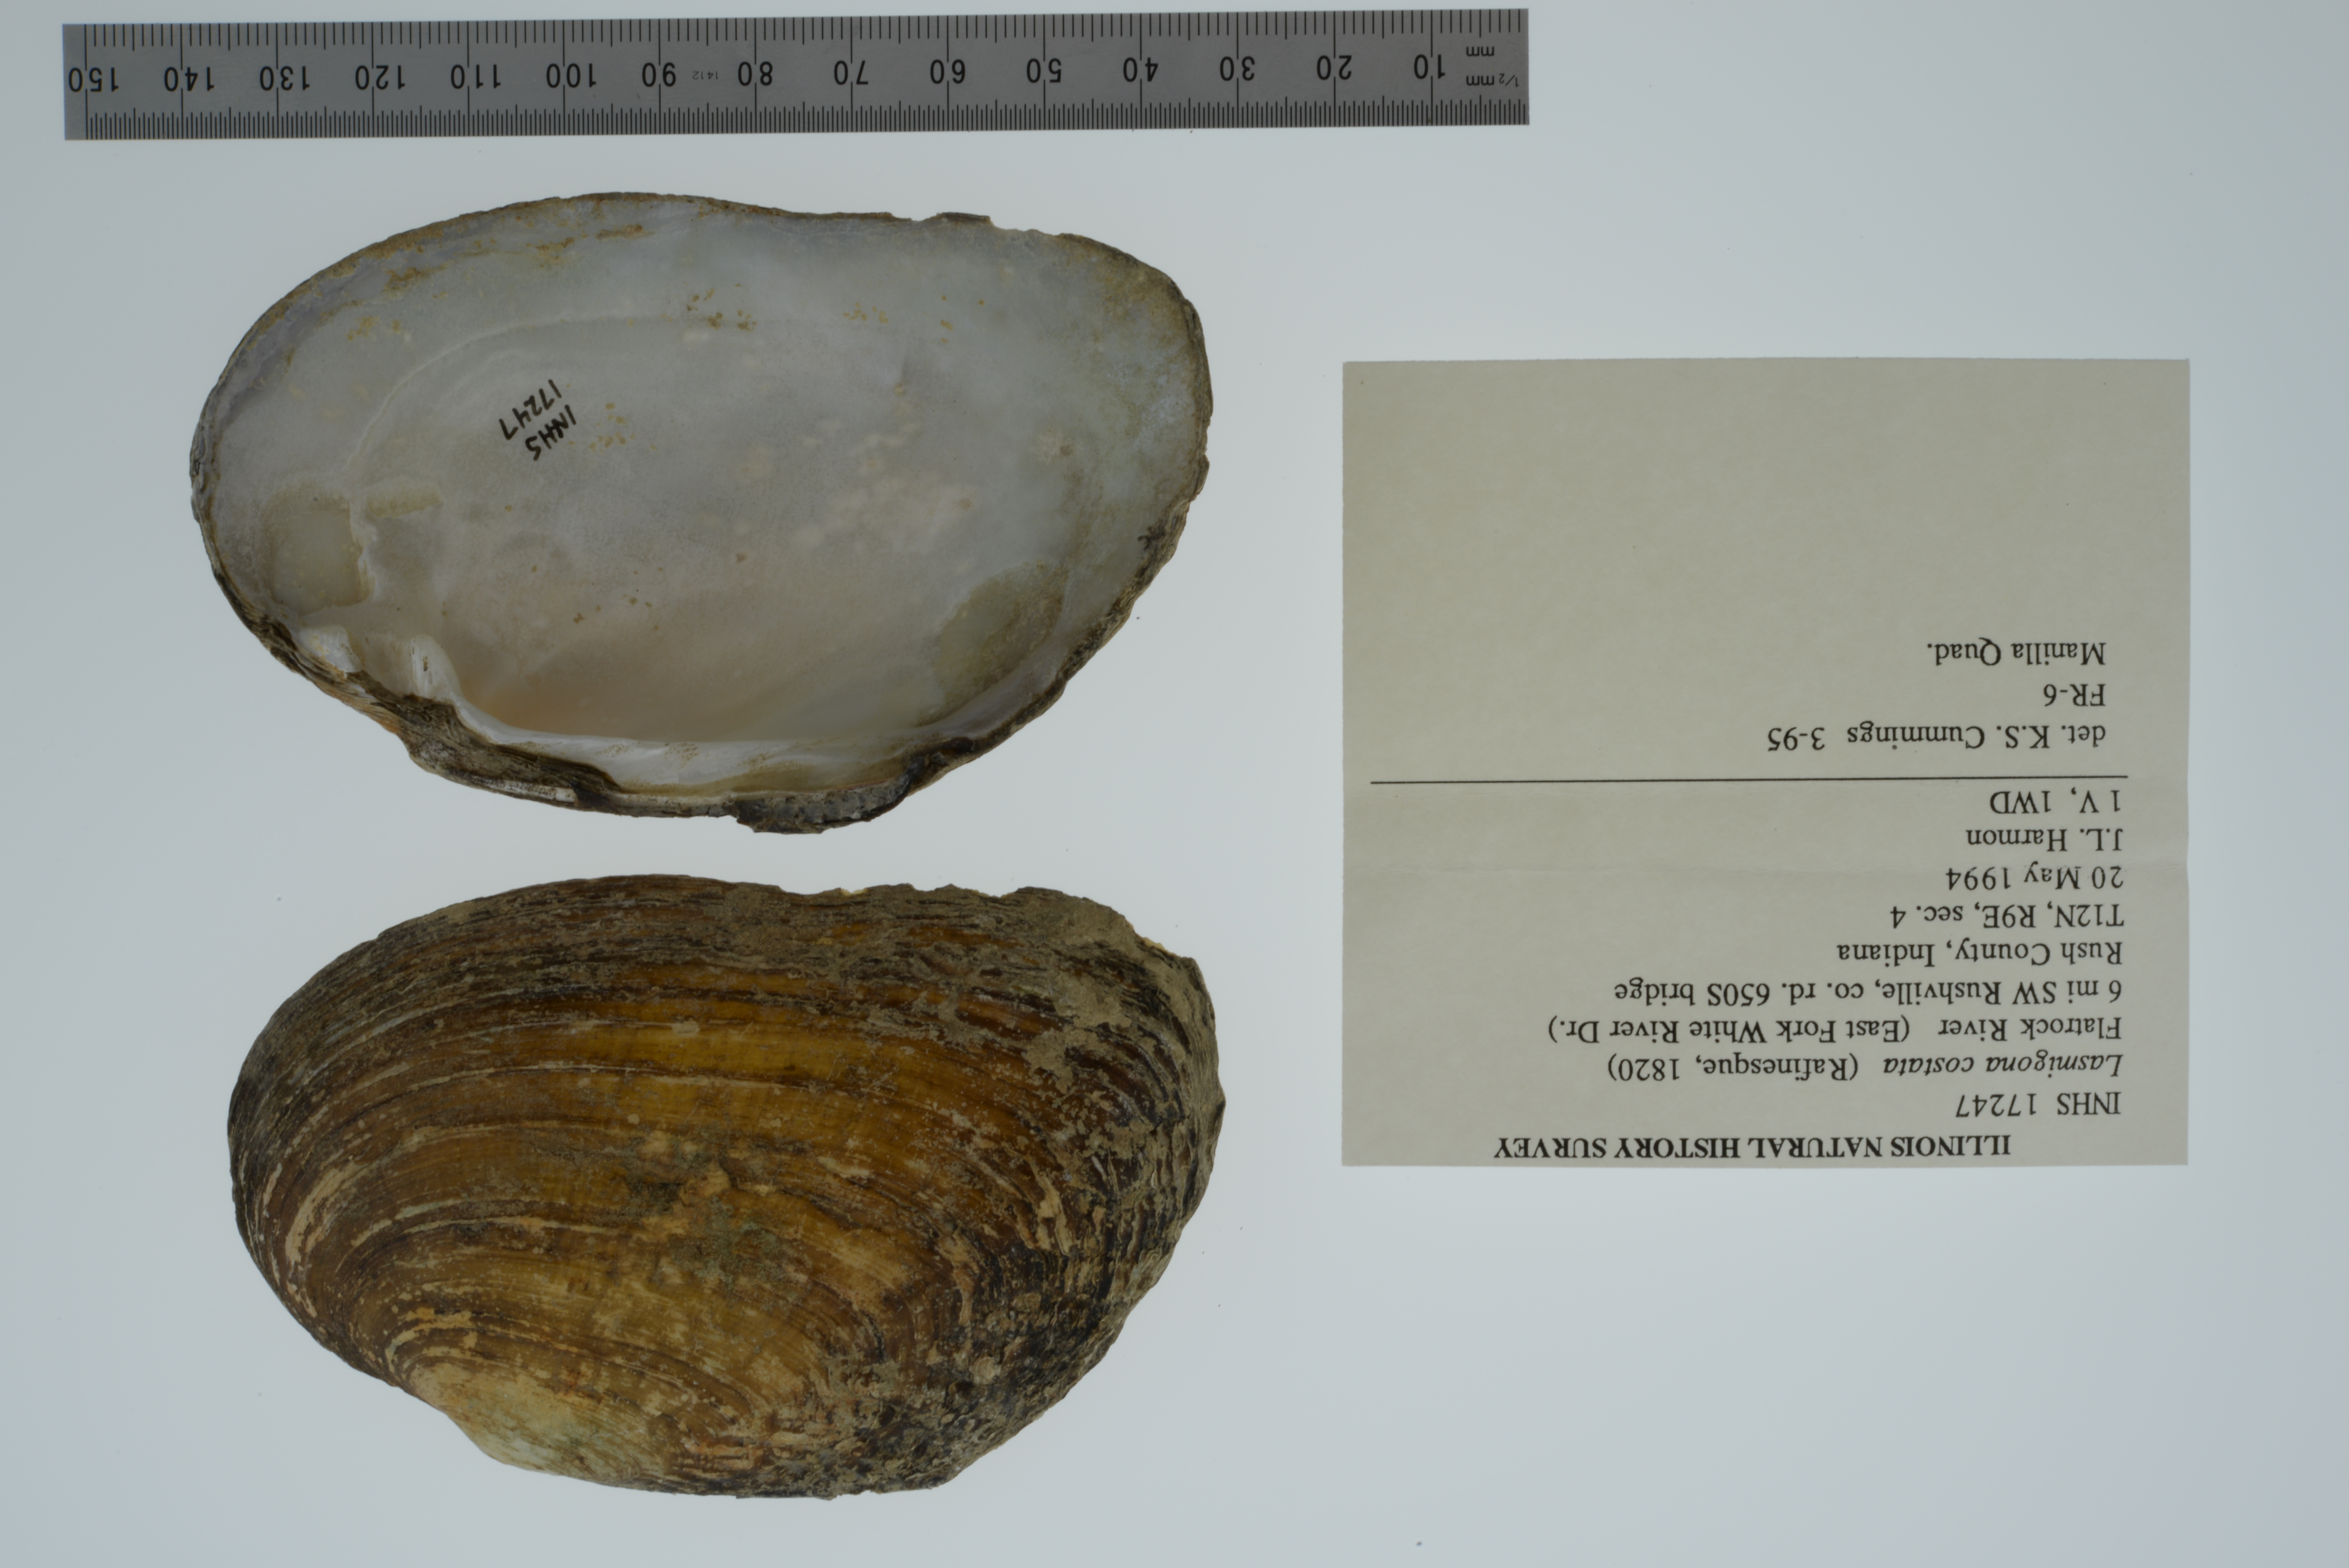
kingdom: Animalia
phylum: Mollusca
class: Bivalvia
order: Unionida
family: Unionidae
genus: Lasmigona
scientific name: Lasmigona costata
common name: Flutedshell
